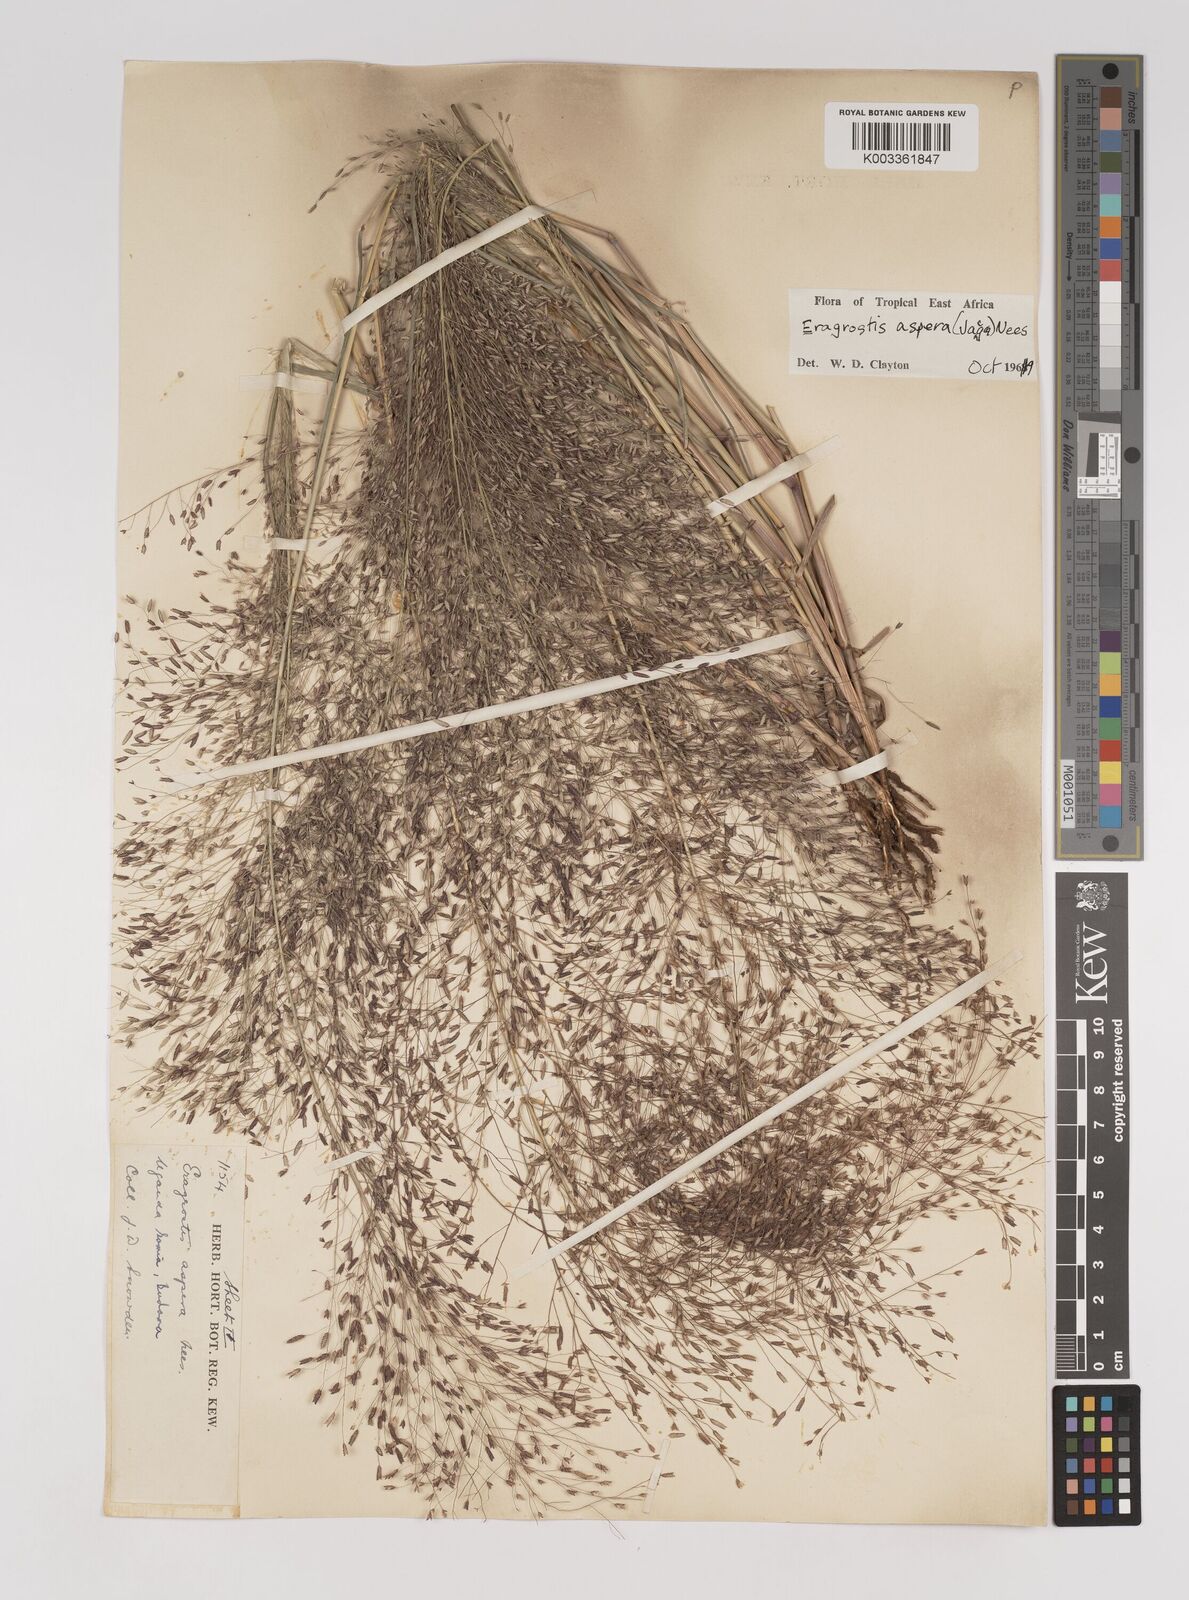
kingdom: Plantae
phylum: Tracheophyta
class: Liliopsida
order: Poales
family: Poaceae
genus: Eragrostis
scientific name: Eragrostis aspera
